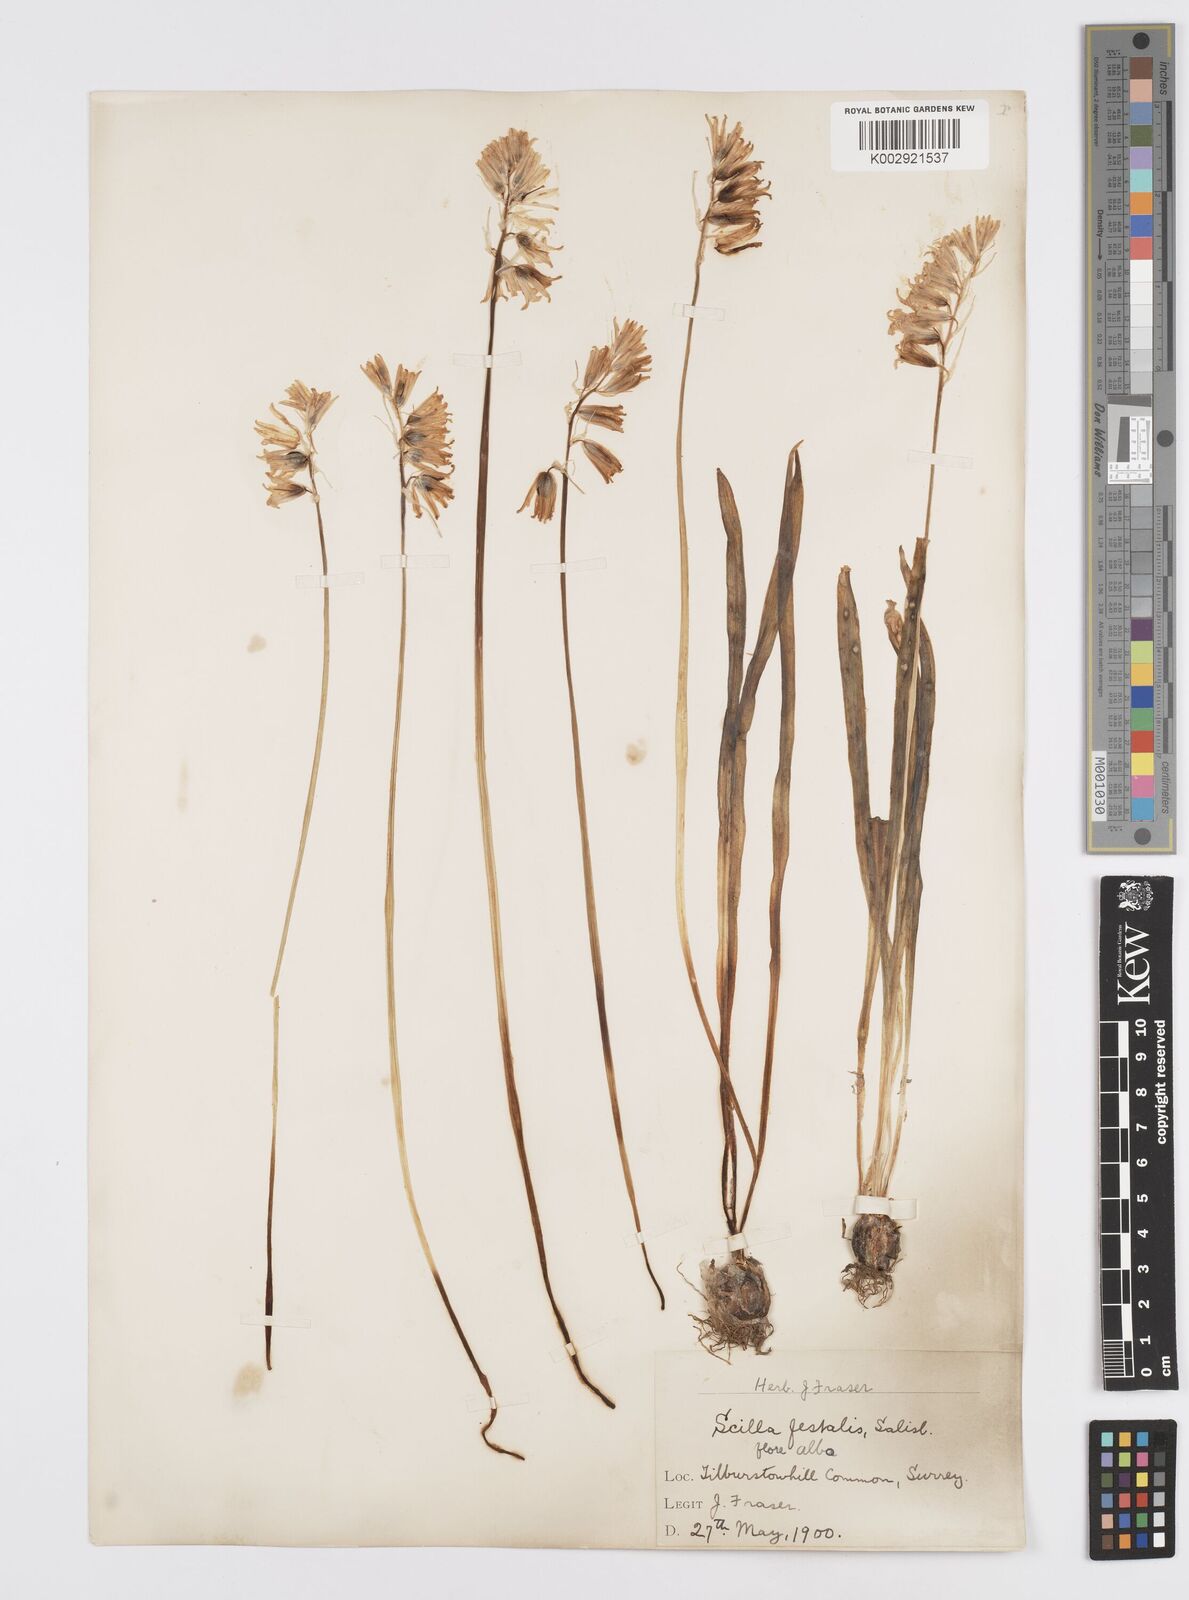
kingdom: Plantae
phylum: Tracheophyta
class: Liliopsida
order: Asparagales
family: Asparagaceae
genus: Hyacinthoides
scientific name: Hyacinthoides non-scripta
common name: Bluebell
